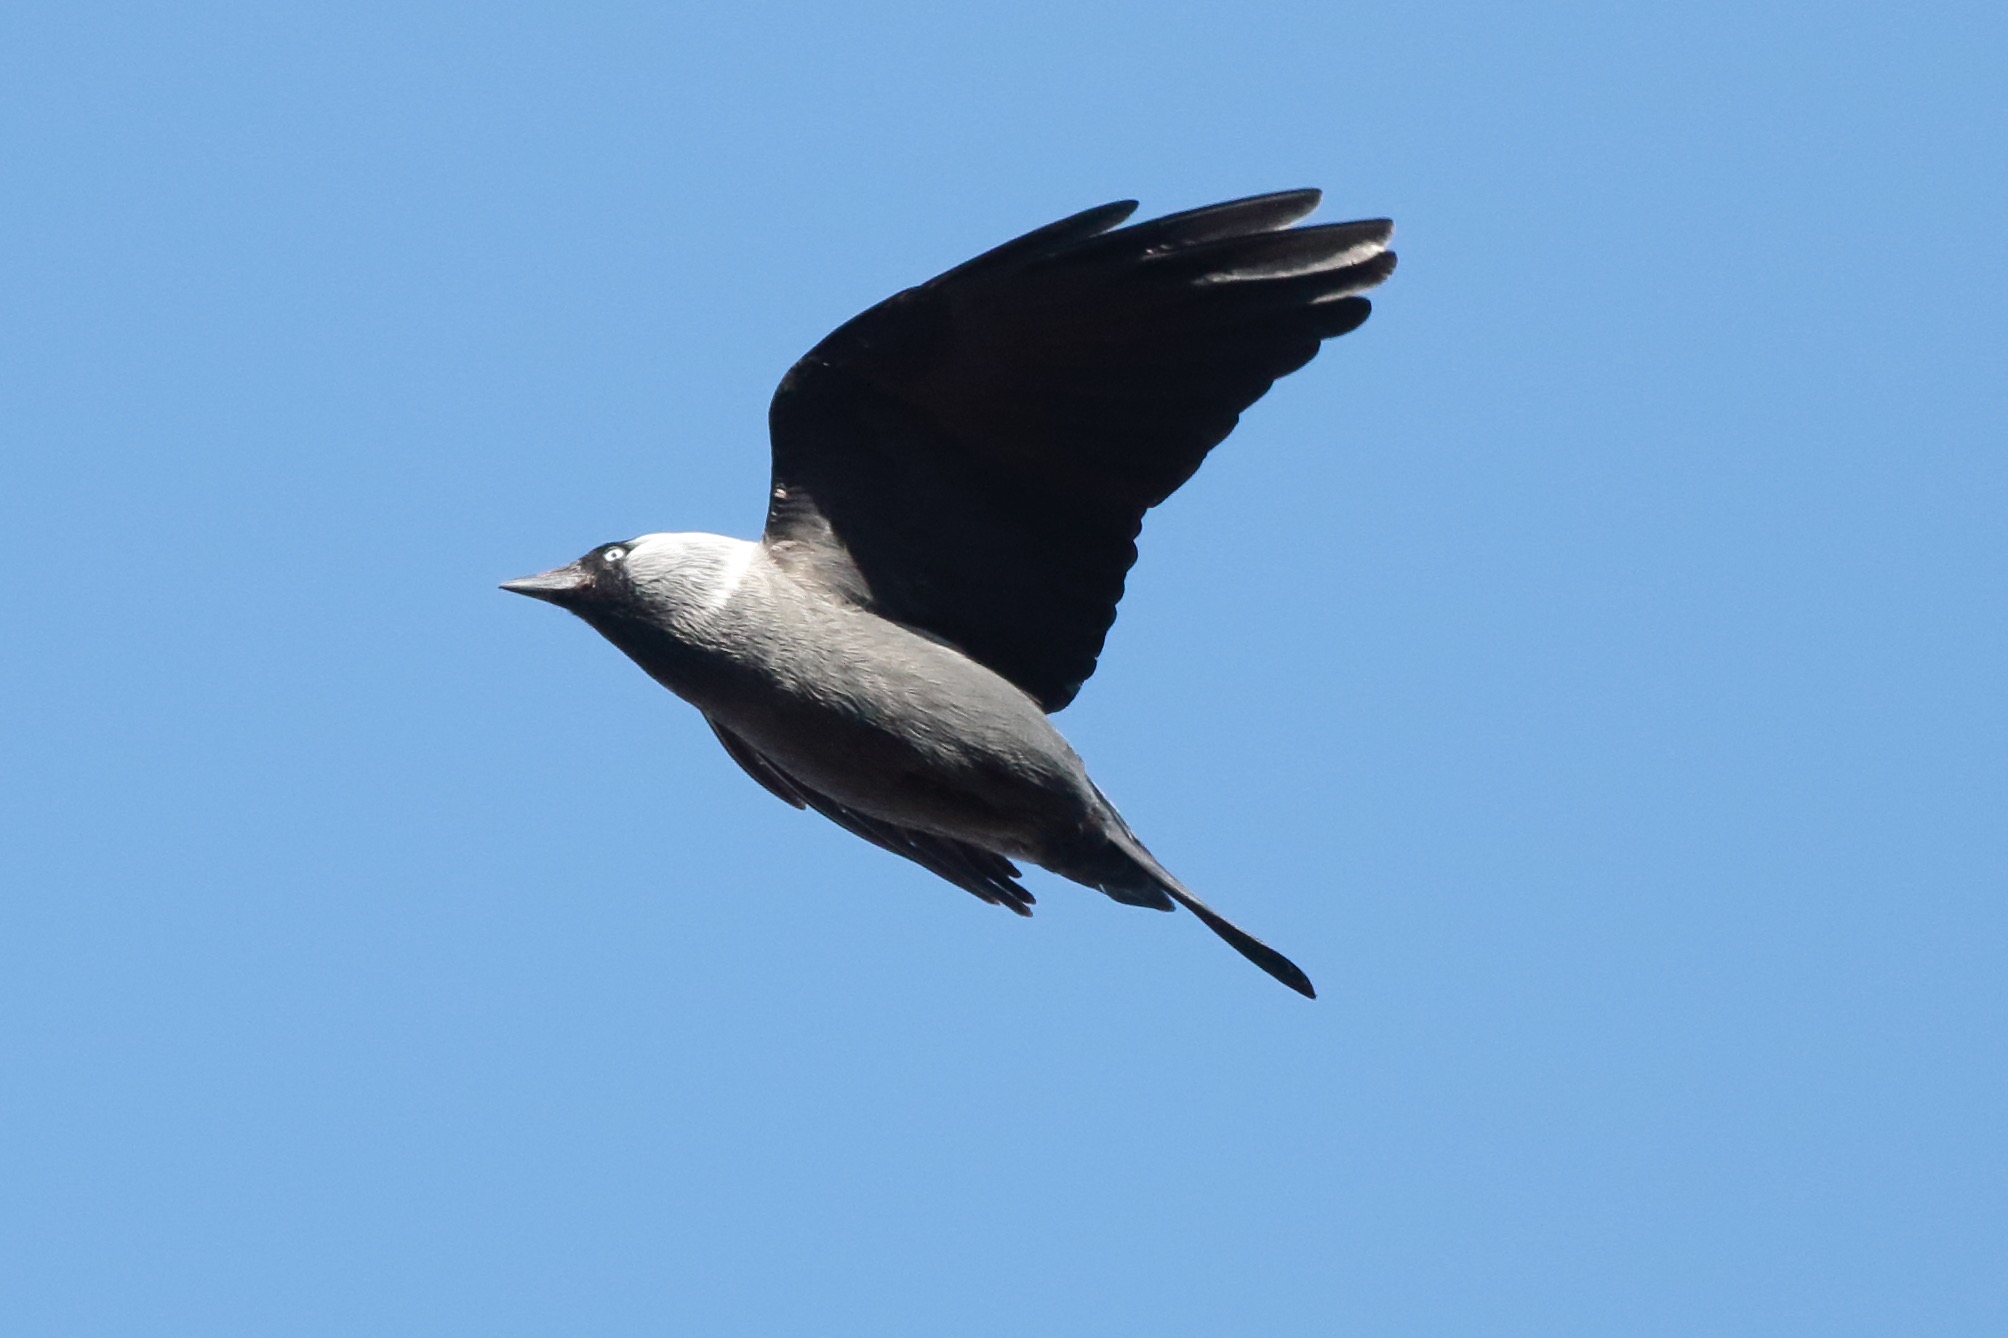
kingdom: Animalia
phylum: Chordata
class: Aves
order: Passeriformes
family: Corvidae
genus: Coloeus
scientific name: Coloeus monedula
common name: Allike
